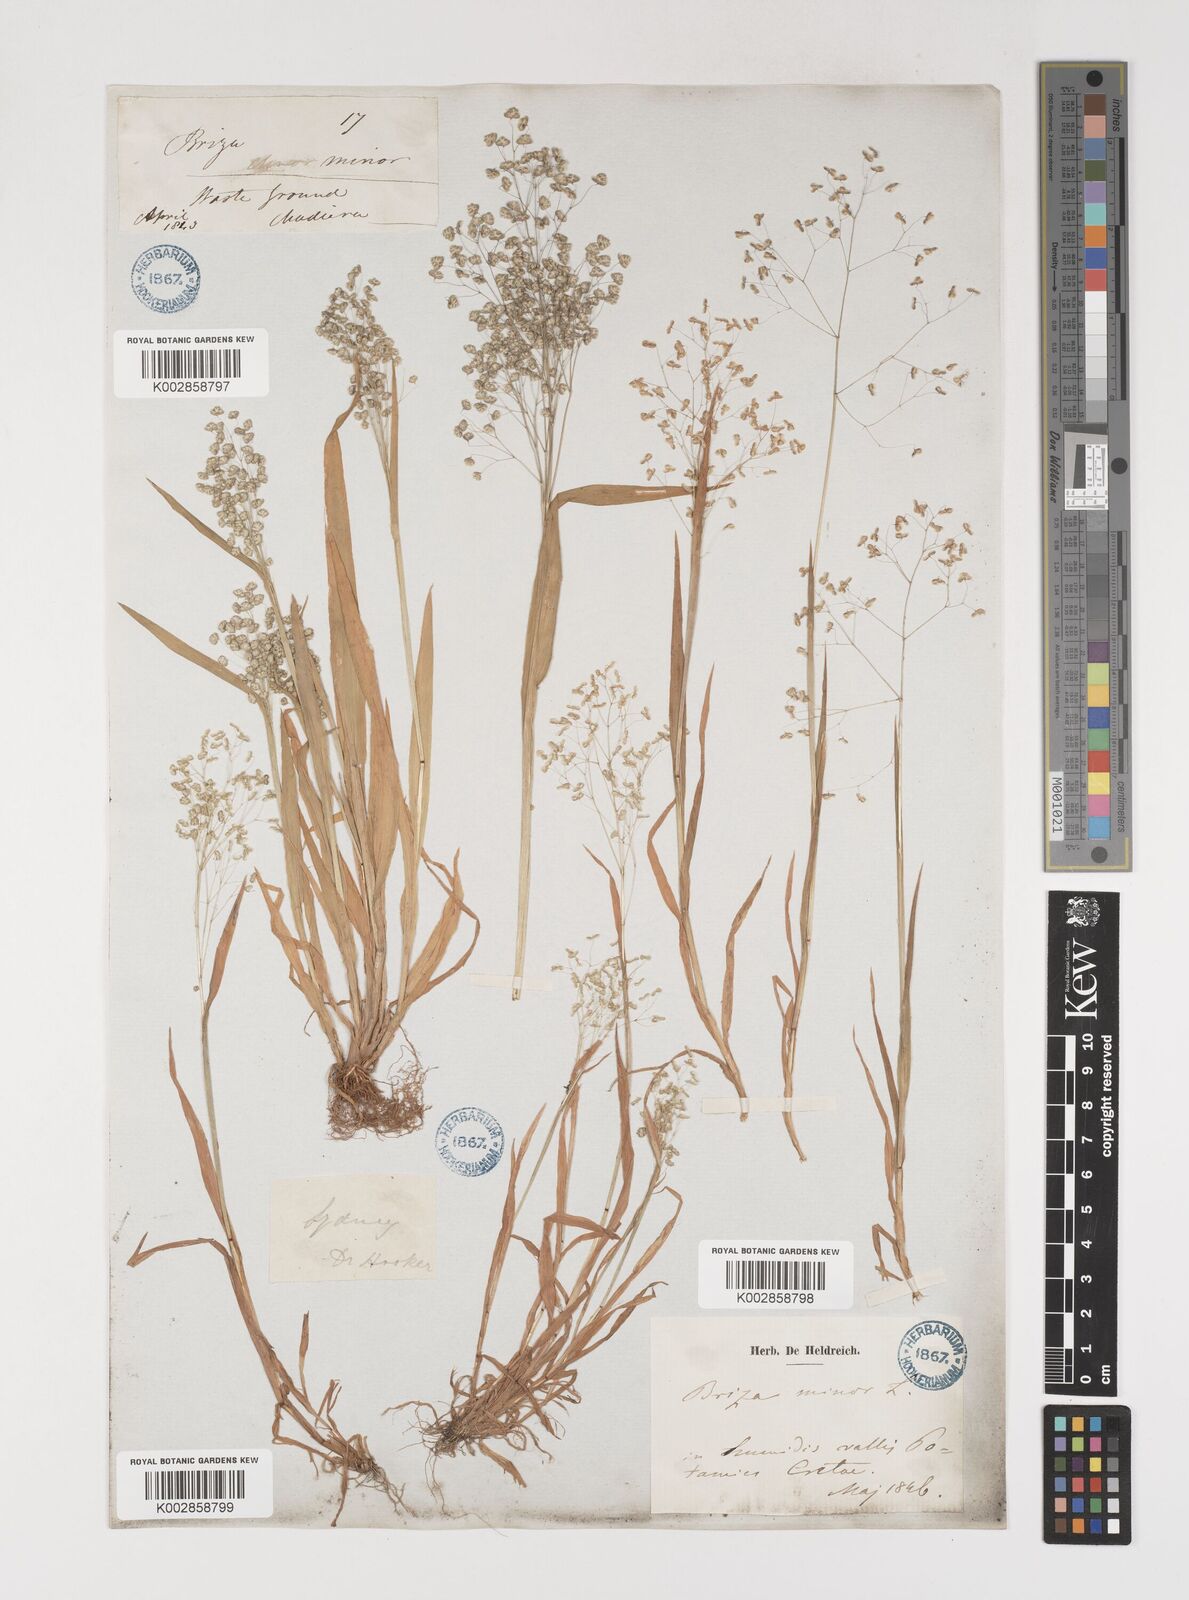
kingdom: Plantae
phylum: Tracheophyta
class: Liliopsida
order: Poales
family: Poaceae
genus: Briza
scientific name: Briza minor
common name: Lesser quaking-grass
